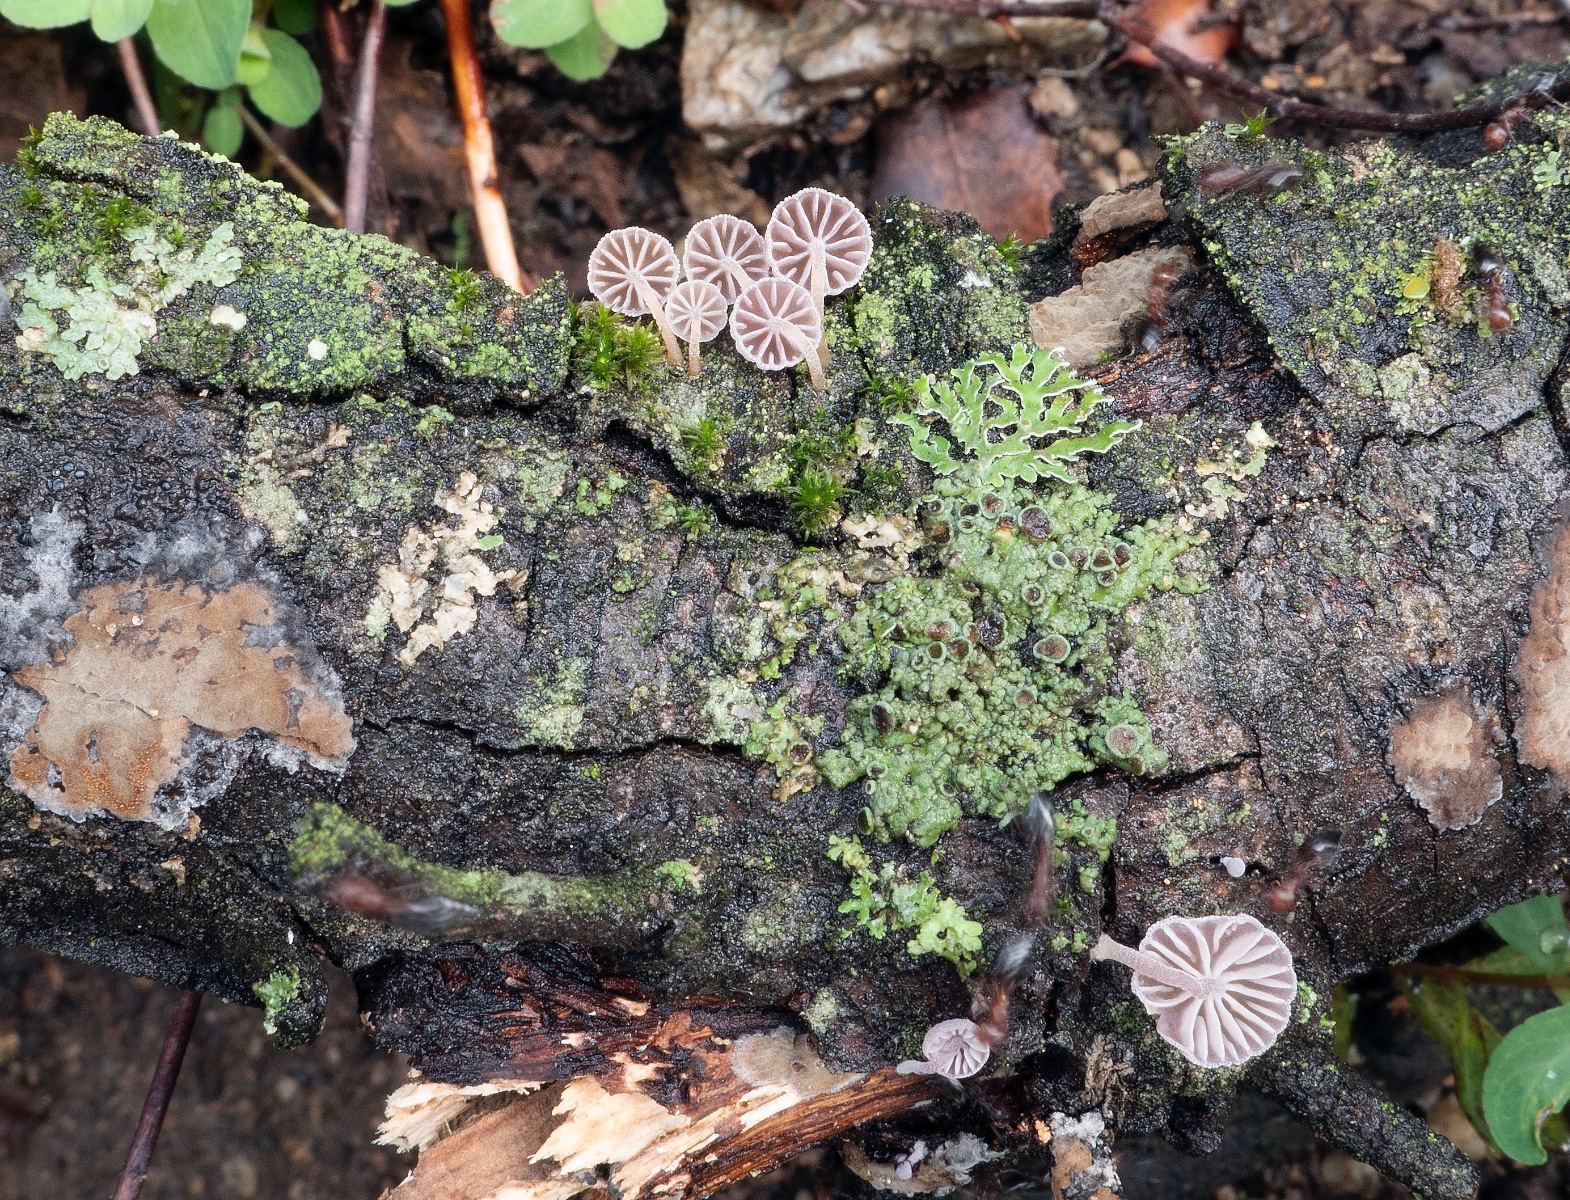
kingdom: Fungi
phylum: Basidiomycota
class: Agaricomycetes
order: Agaricales
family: Mycenaceae
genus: Mycena
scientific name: Mycena meliigena
